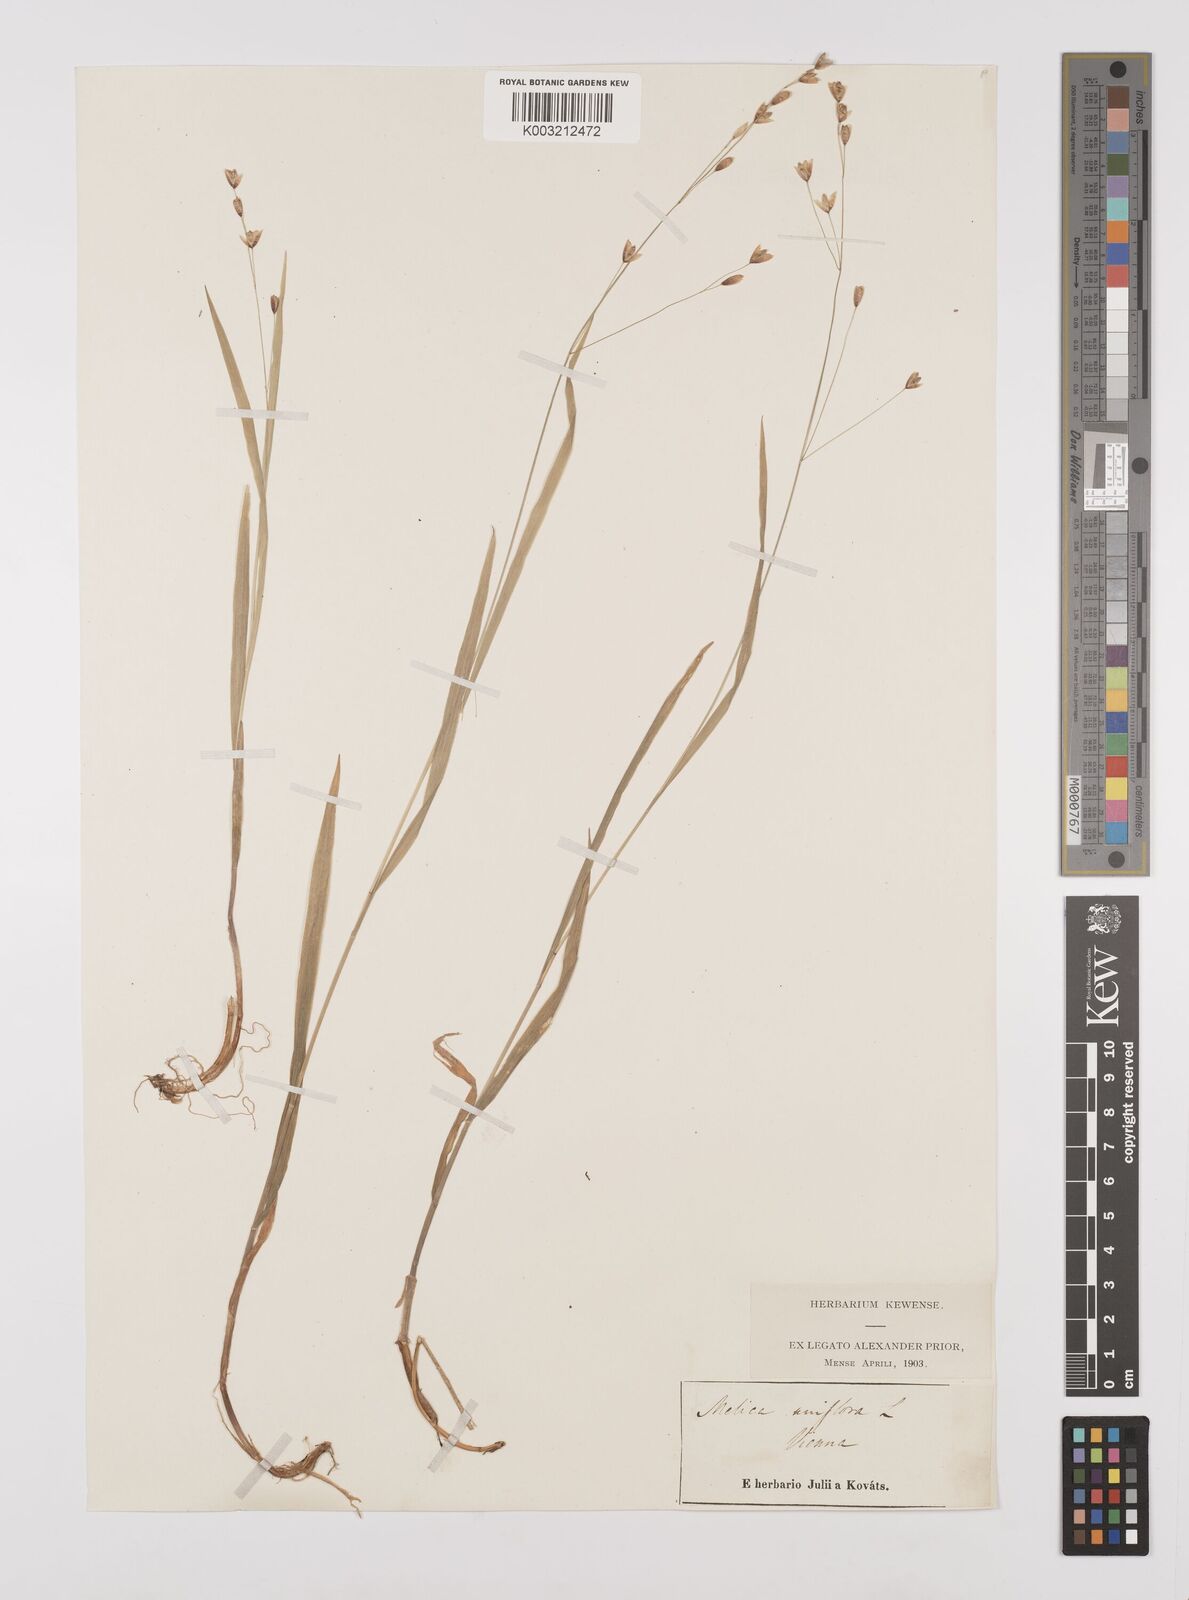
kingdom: Plantae
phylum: Tracheophyta
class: Liliopsida
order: Poales
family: Poaceae
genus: Melica
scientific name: Melica uniflora
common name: Wood melick
